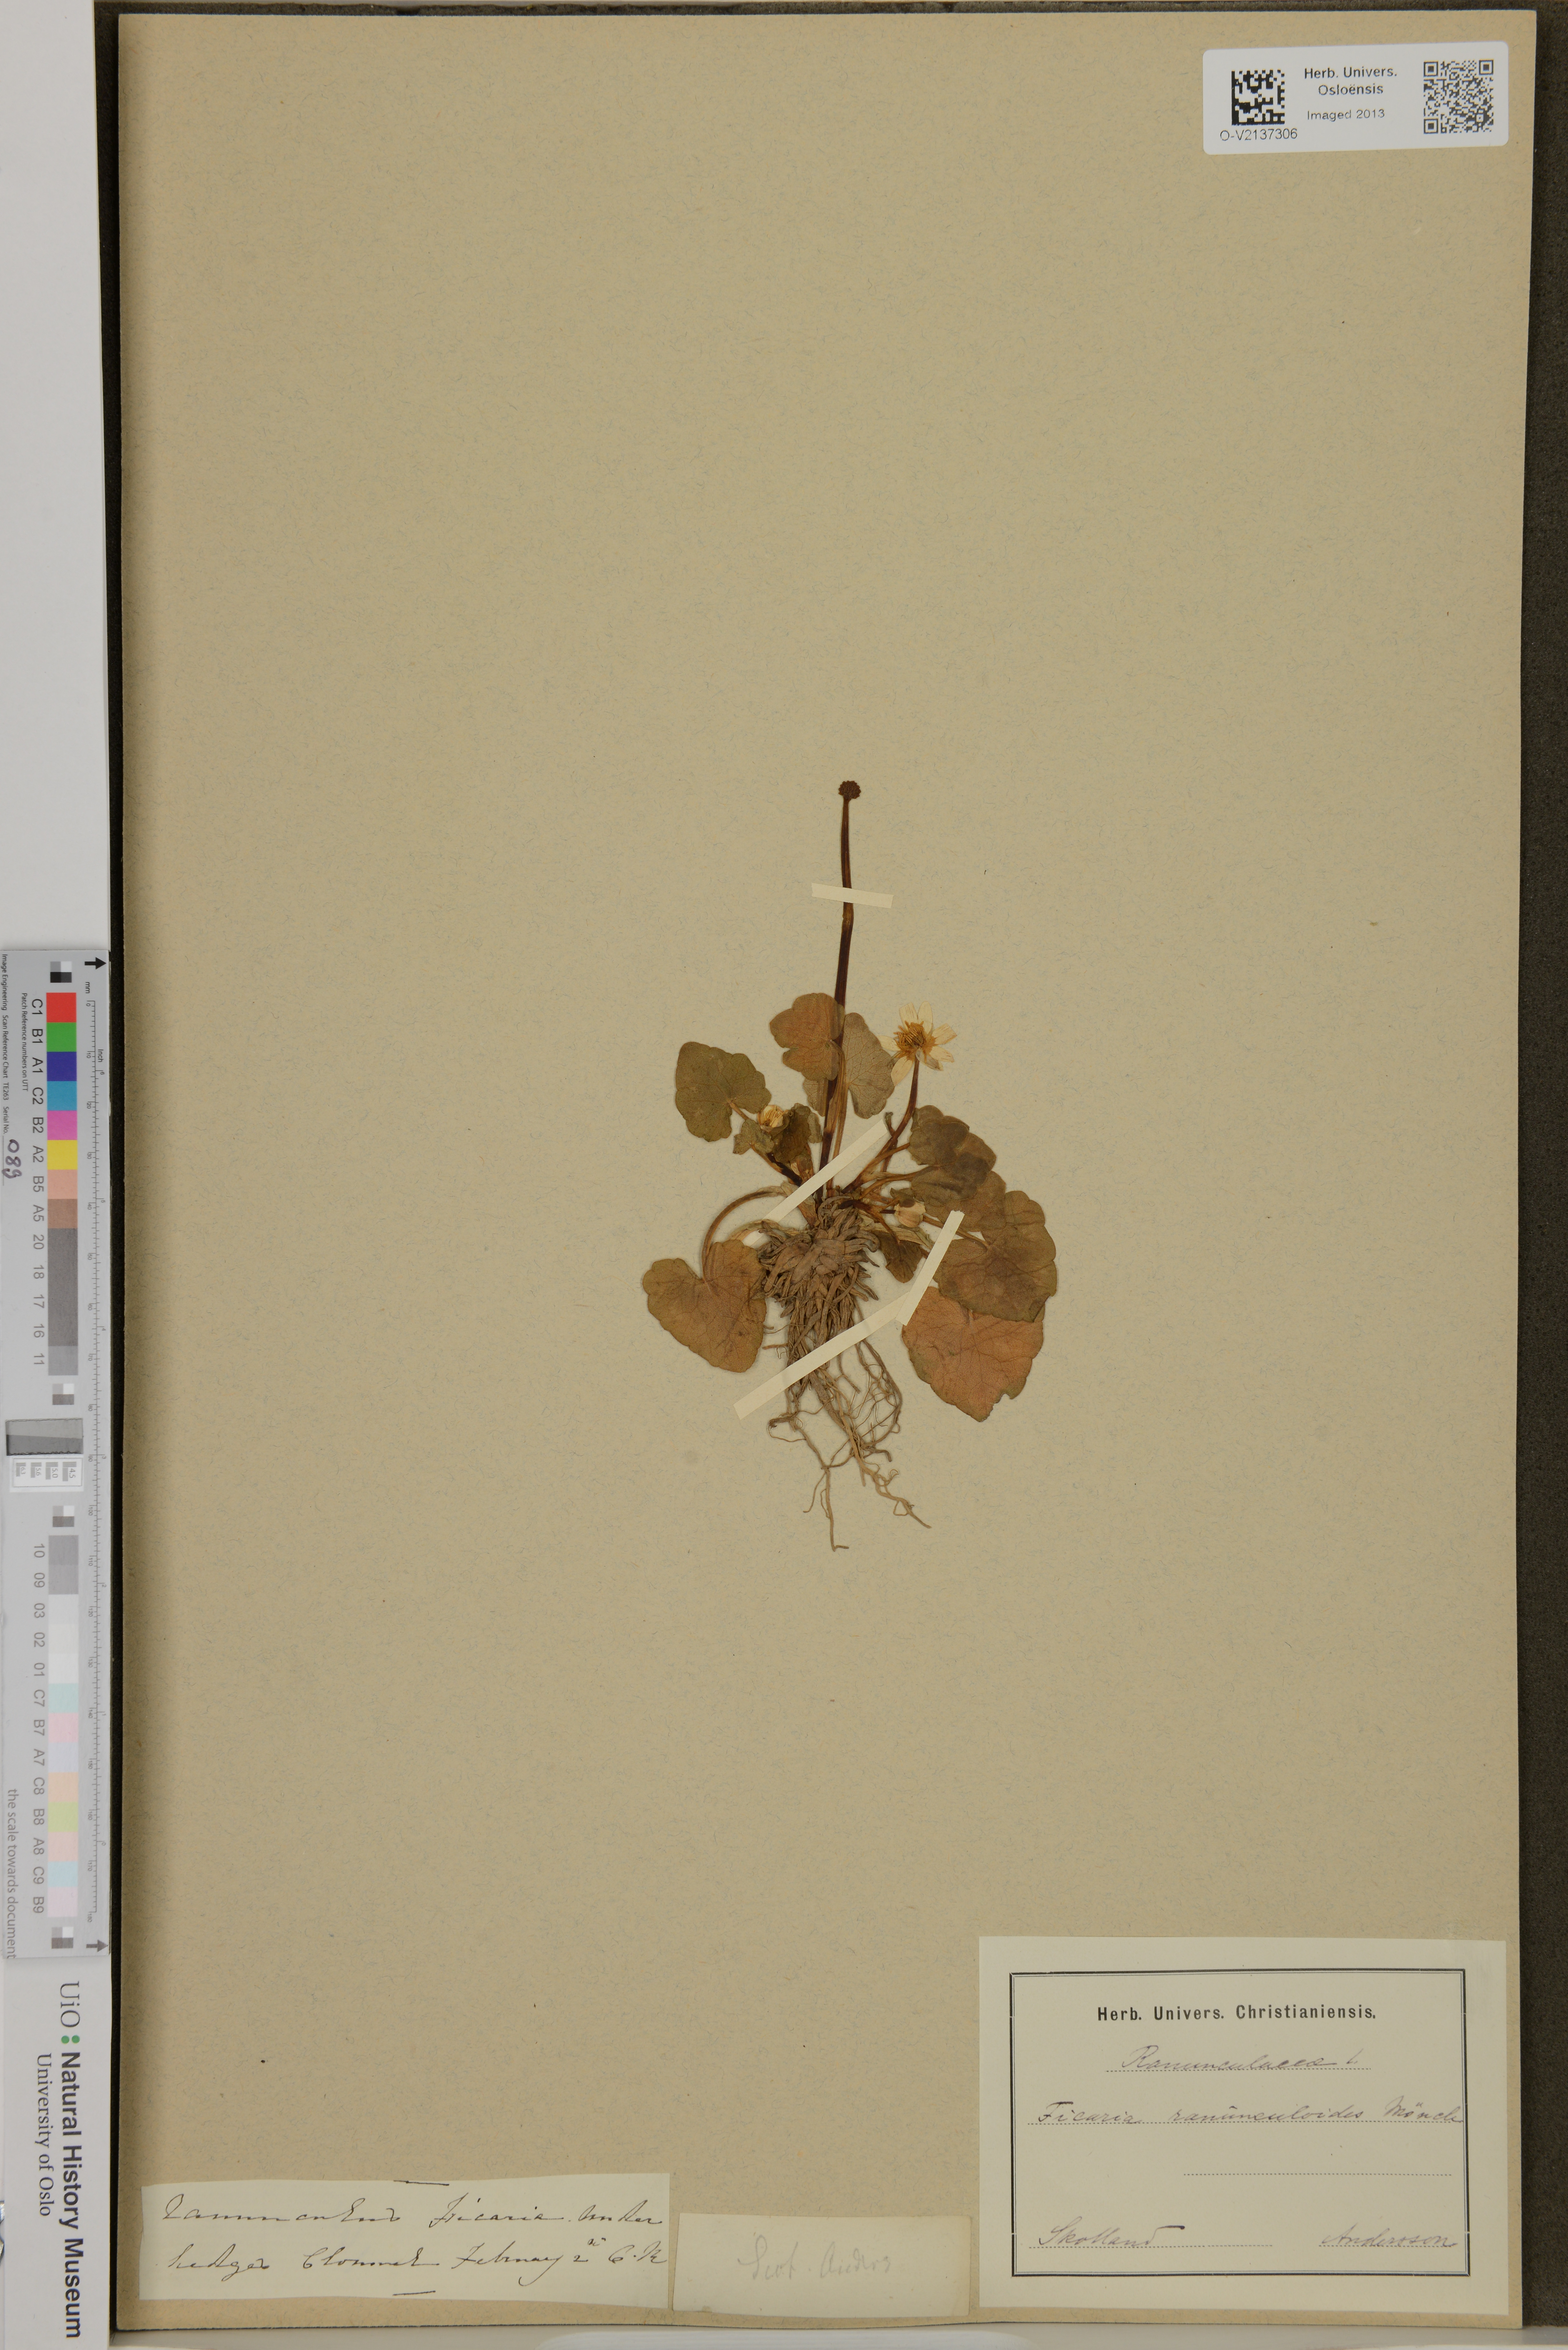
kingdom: Plantae
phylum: Tracheophyta
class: Magnoliopsida
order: Ranunculales
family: Ranunculaceae
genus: Ficaria
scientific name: Ficaria verna
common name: Lesser celandine
